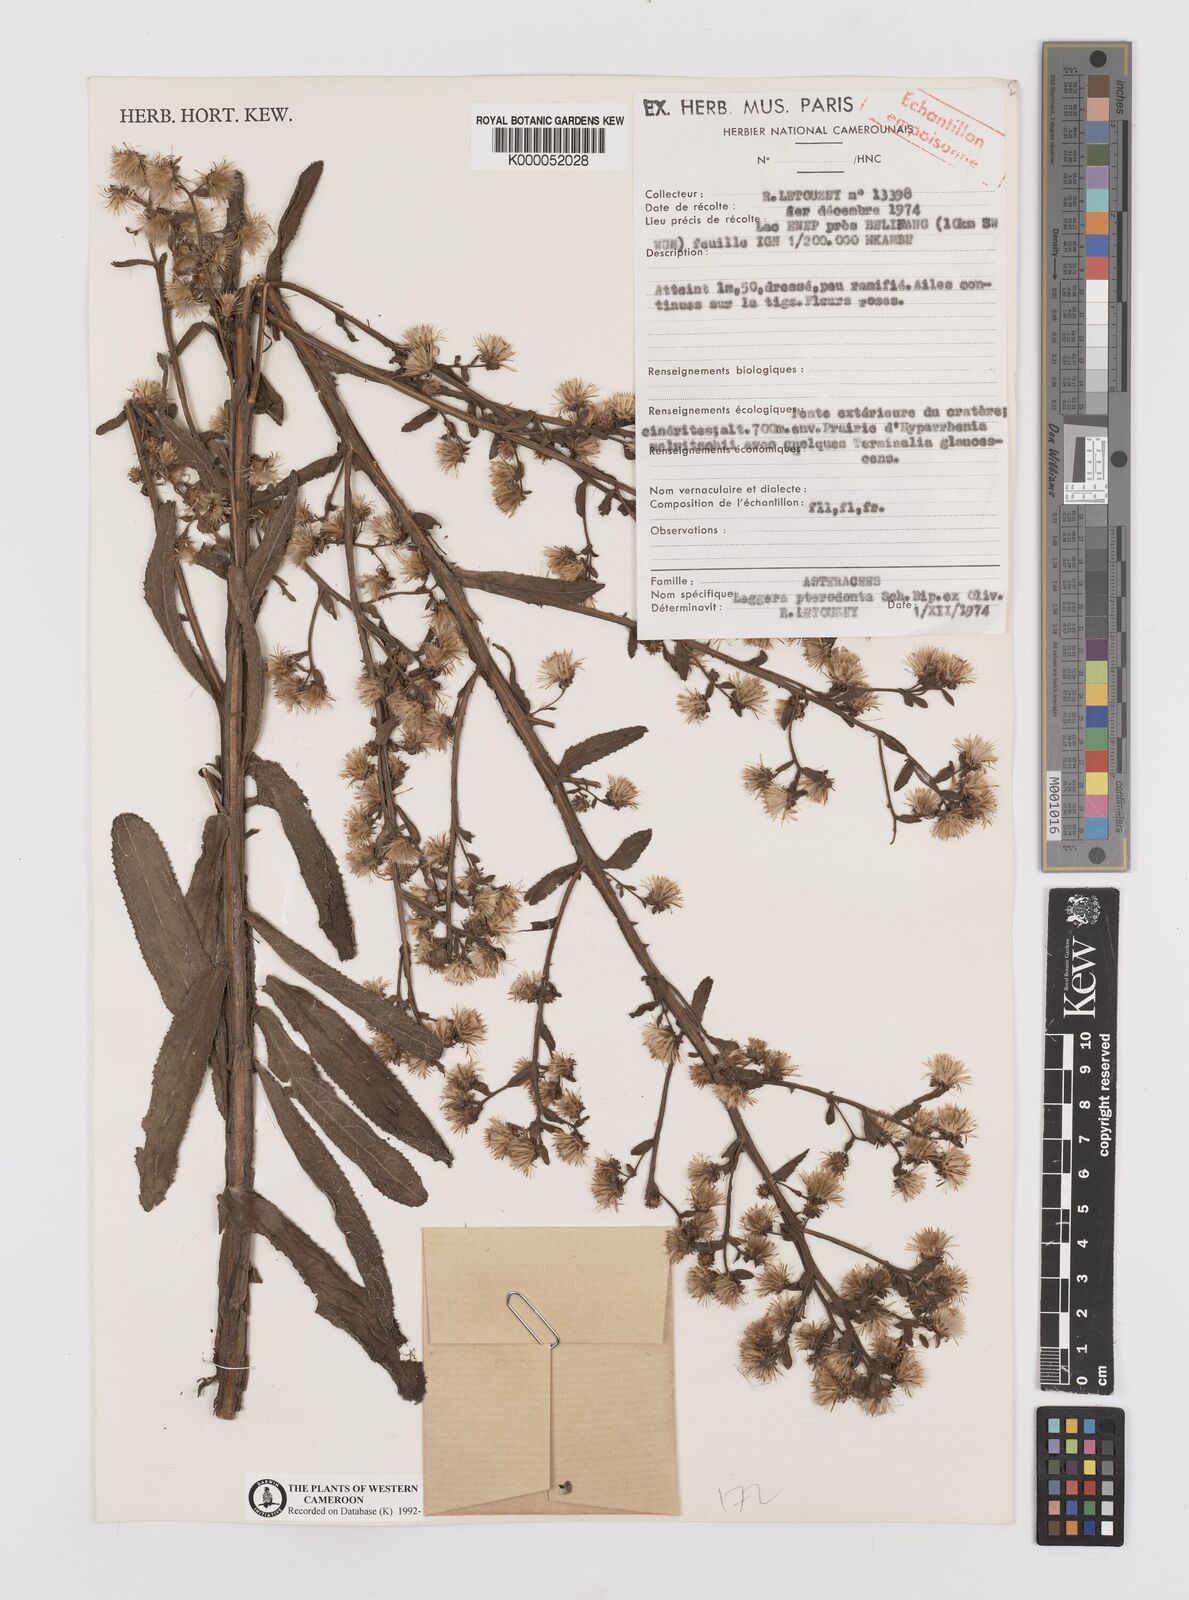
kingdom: Plantae
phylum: Tracheophyta
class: Magnoliopsida
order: Asterales
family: Asteraceae
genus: Laggera
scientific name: Laggera crispata
